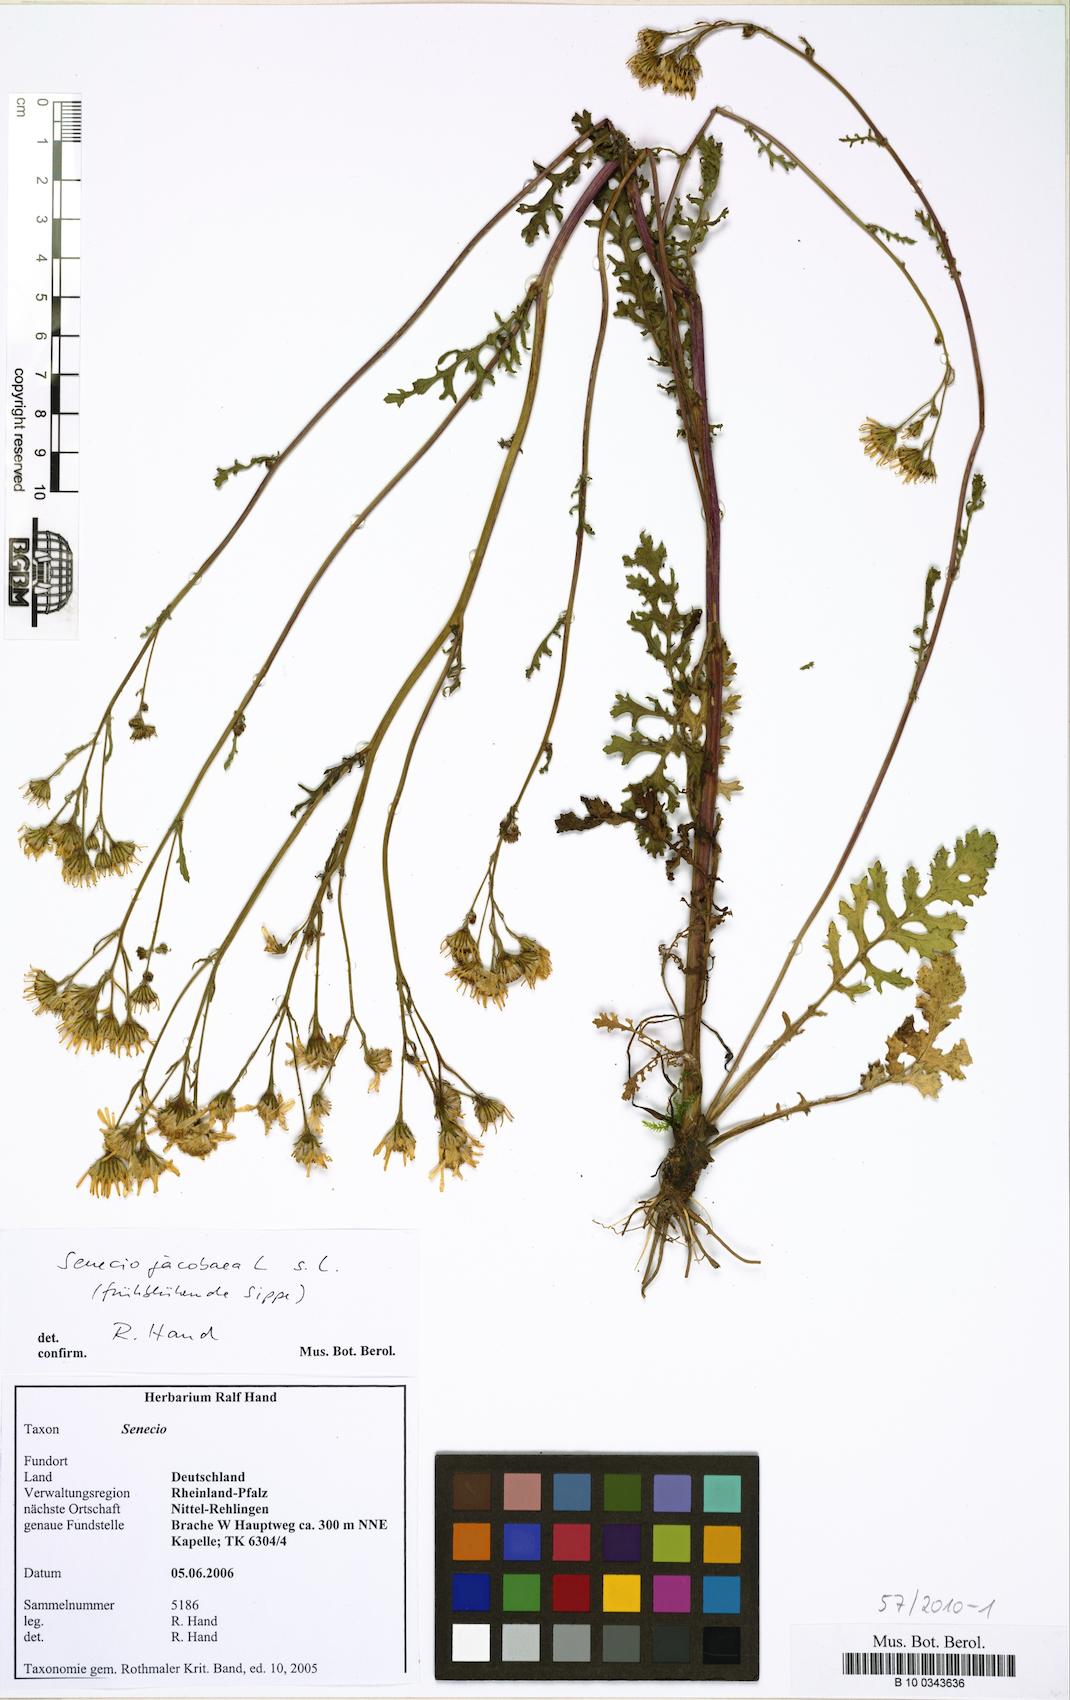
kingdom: Plantae
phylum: Tracheophyta
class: Magnoliopsida
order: Asterales
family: Asteraceae
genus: Jacobaea
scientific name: Jacobaea vulgaris
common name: Stinking willie
